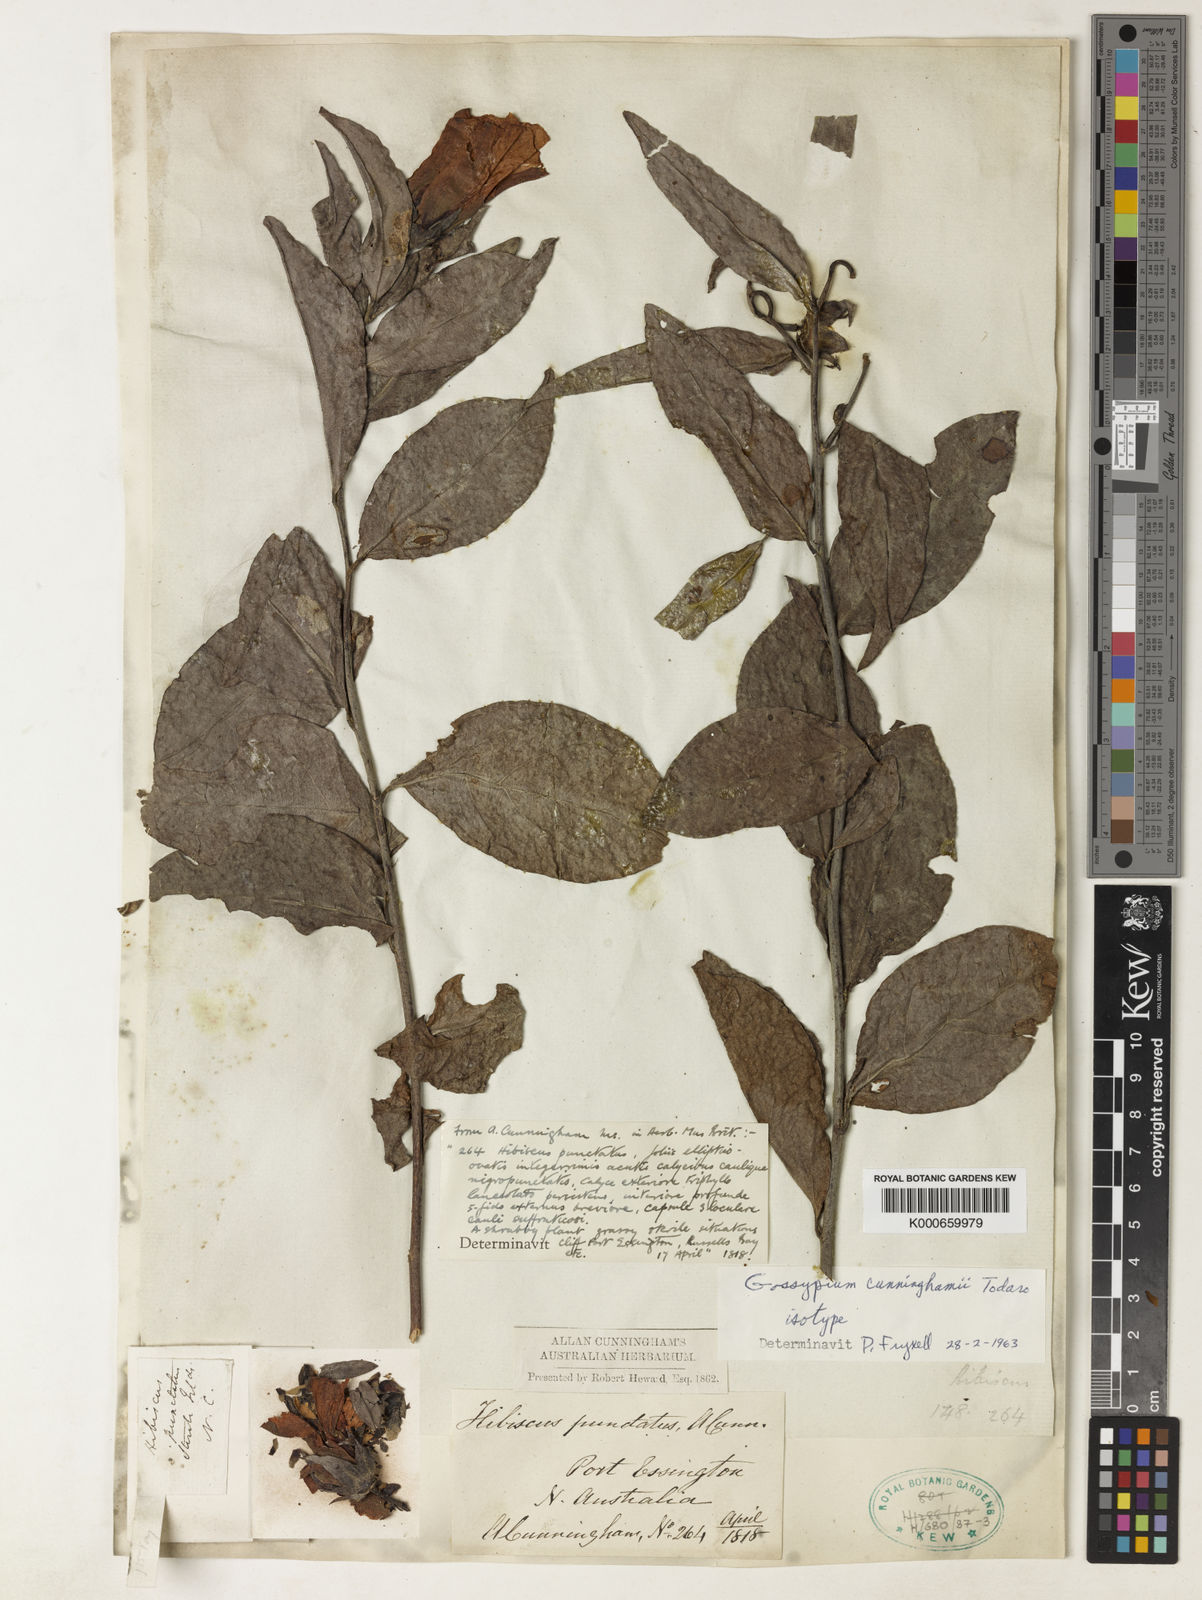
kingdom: Plantae
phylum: Tracheophyta
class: Magnoliopsida
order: Malvales
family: Malvaceae
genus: Gossypium
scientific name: Gossypium cunninghamii
